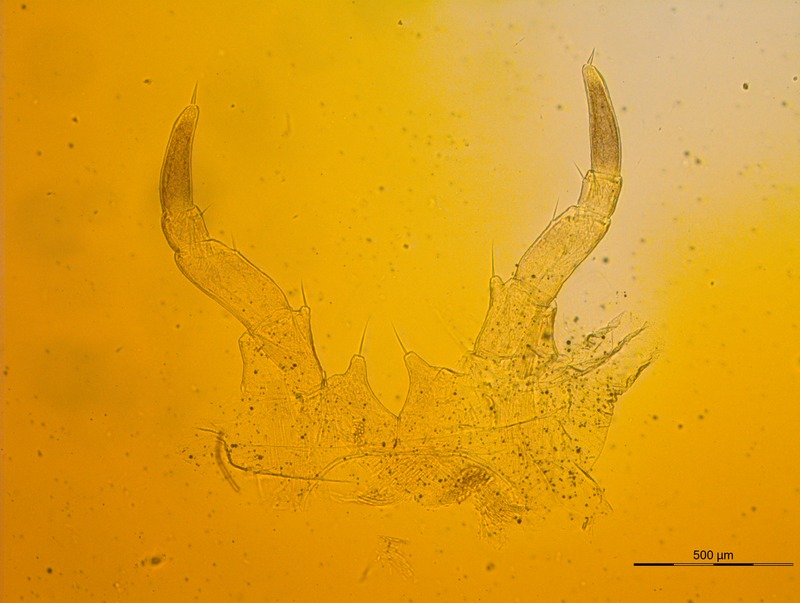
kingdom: Animalia
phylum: Arthropoda
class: Diplopoda
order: Glomerida
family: Glomeridae
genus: Glomeris
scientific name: Glomeris pulchra
